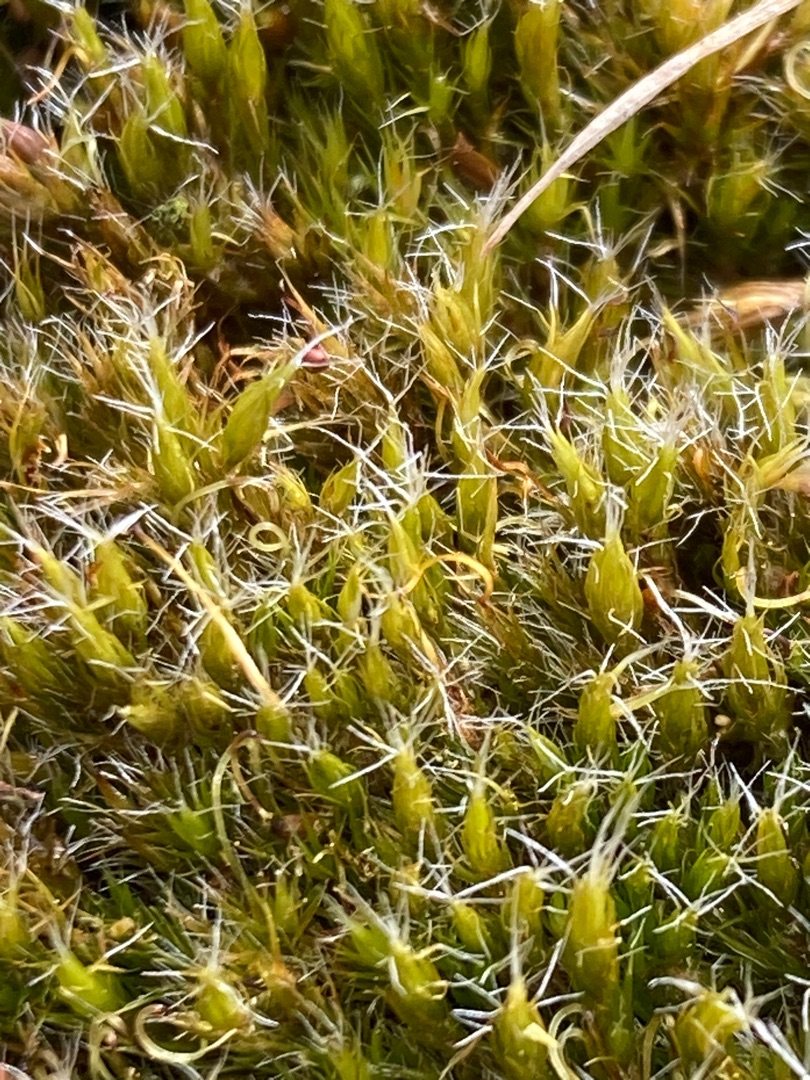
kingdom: Plantae
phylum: Bryophyta
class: Bryopsida
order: Dicranales
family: Leucobryaceae
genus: Campylopus
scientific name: Campylopus introflexus
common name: Stjerne-bredribbe
